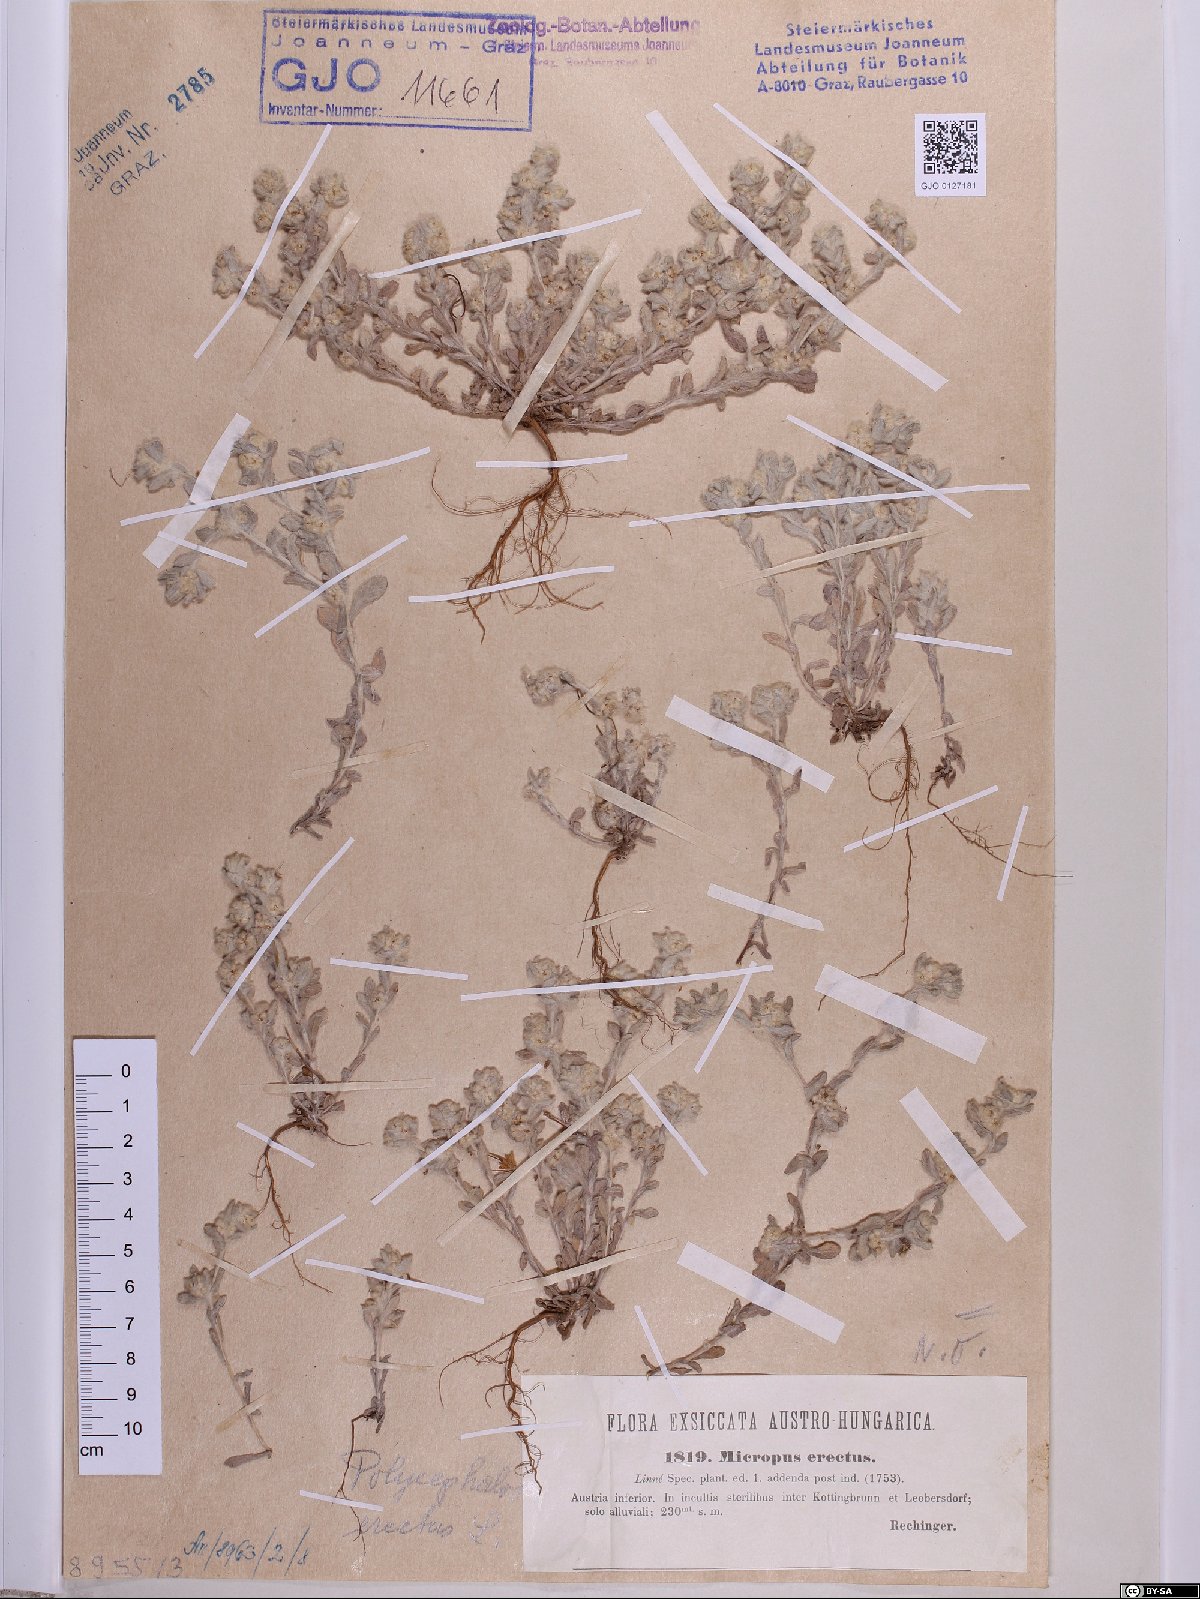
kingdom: Plantae
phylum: Tracheophyta
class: Magnoliopsida
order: Asterales
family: Asteraceae
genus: Bombycilaena
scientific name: Bombycilaena erecta
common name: Micropus
